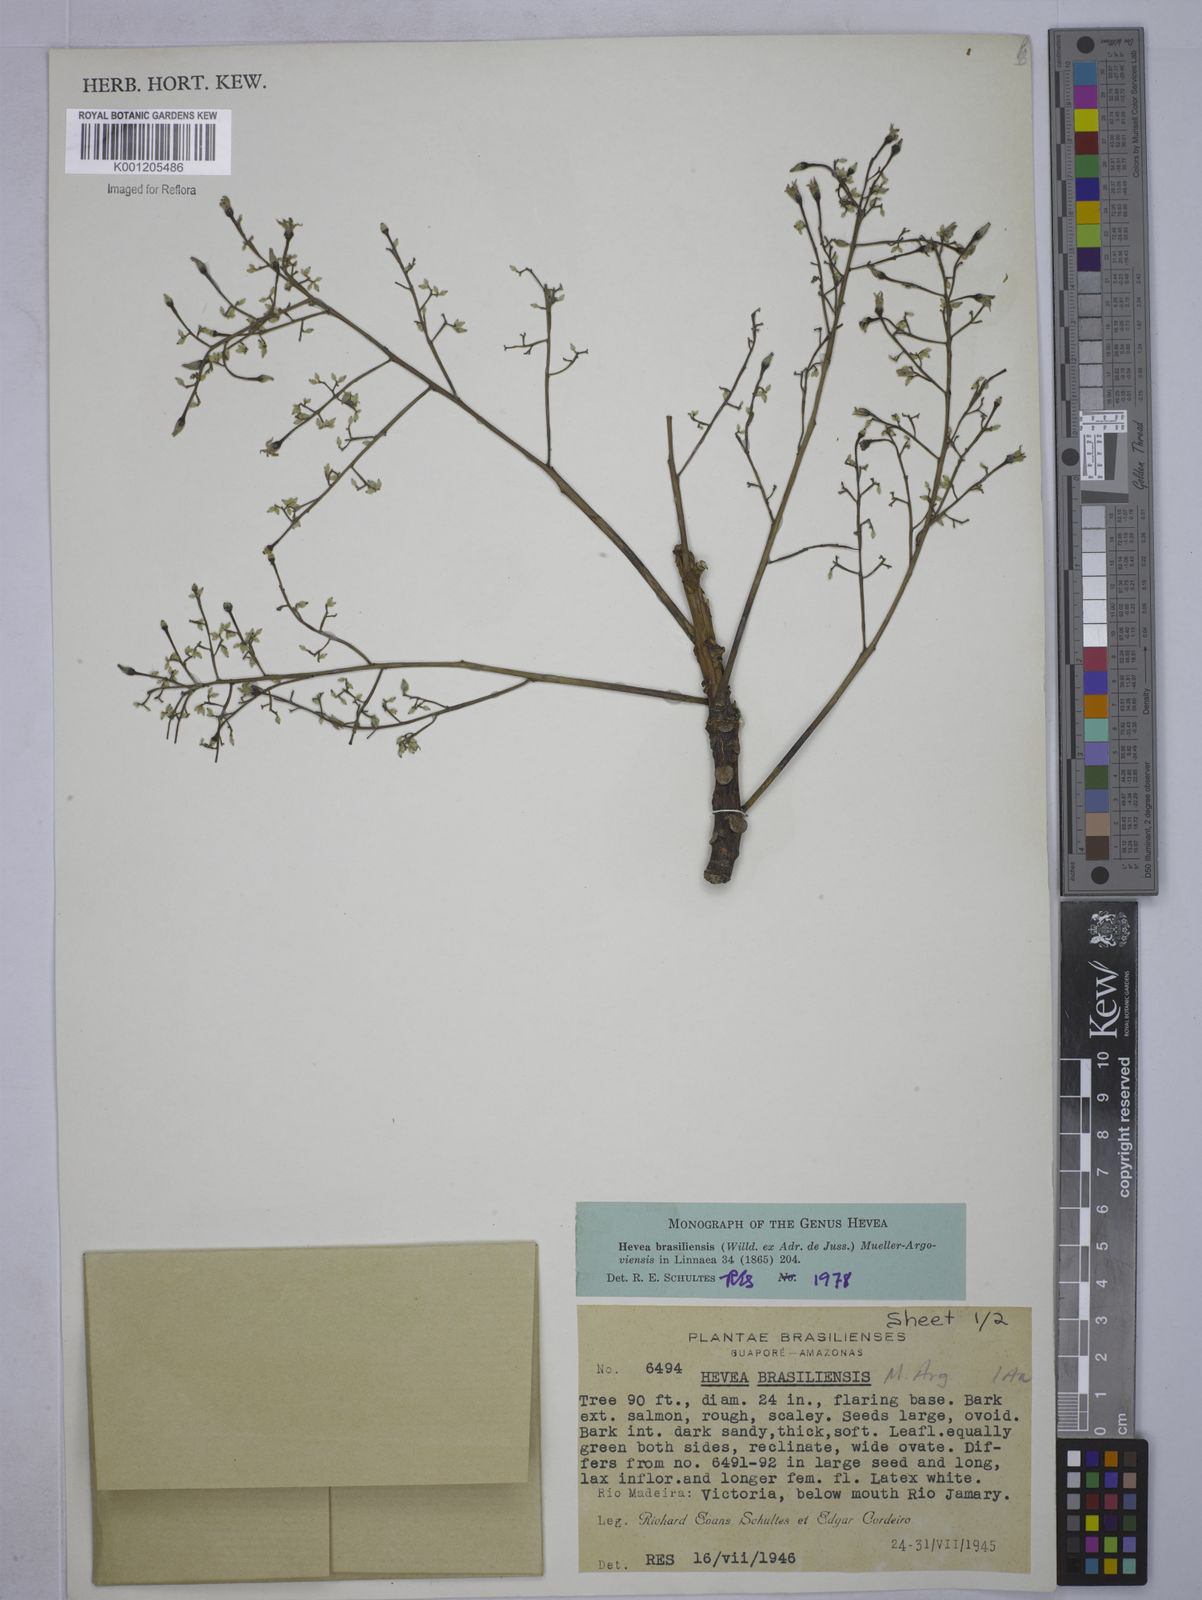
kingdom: Plantae
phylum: Tracheophyta
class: Magnoliopsida
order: Malpighiales
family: Euphorbiaceae
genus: Hevea
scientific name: Hevea
